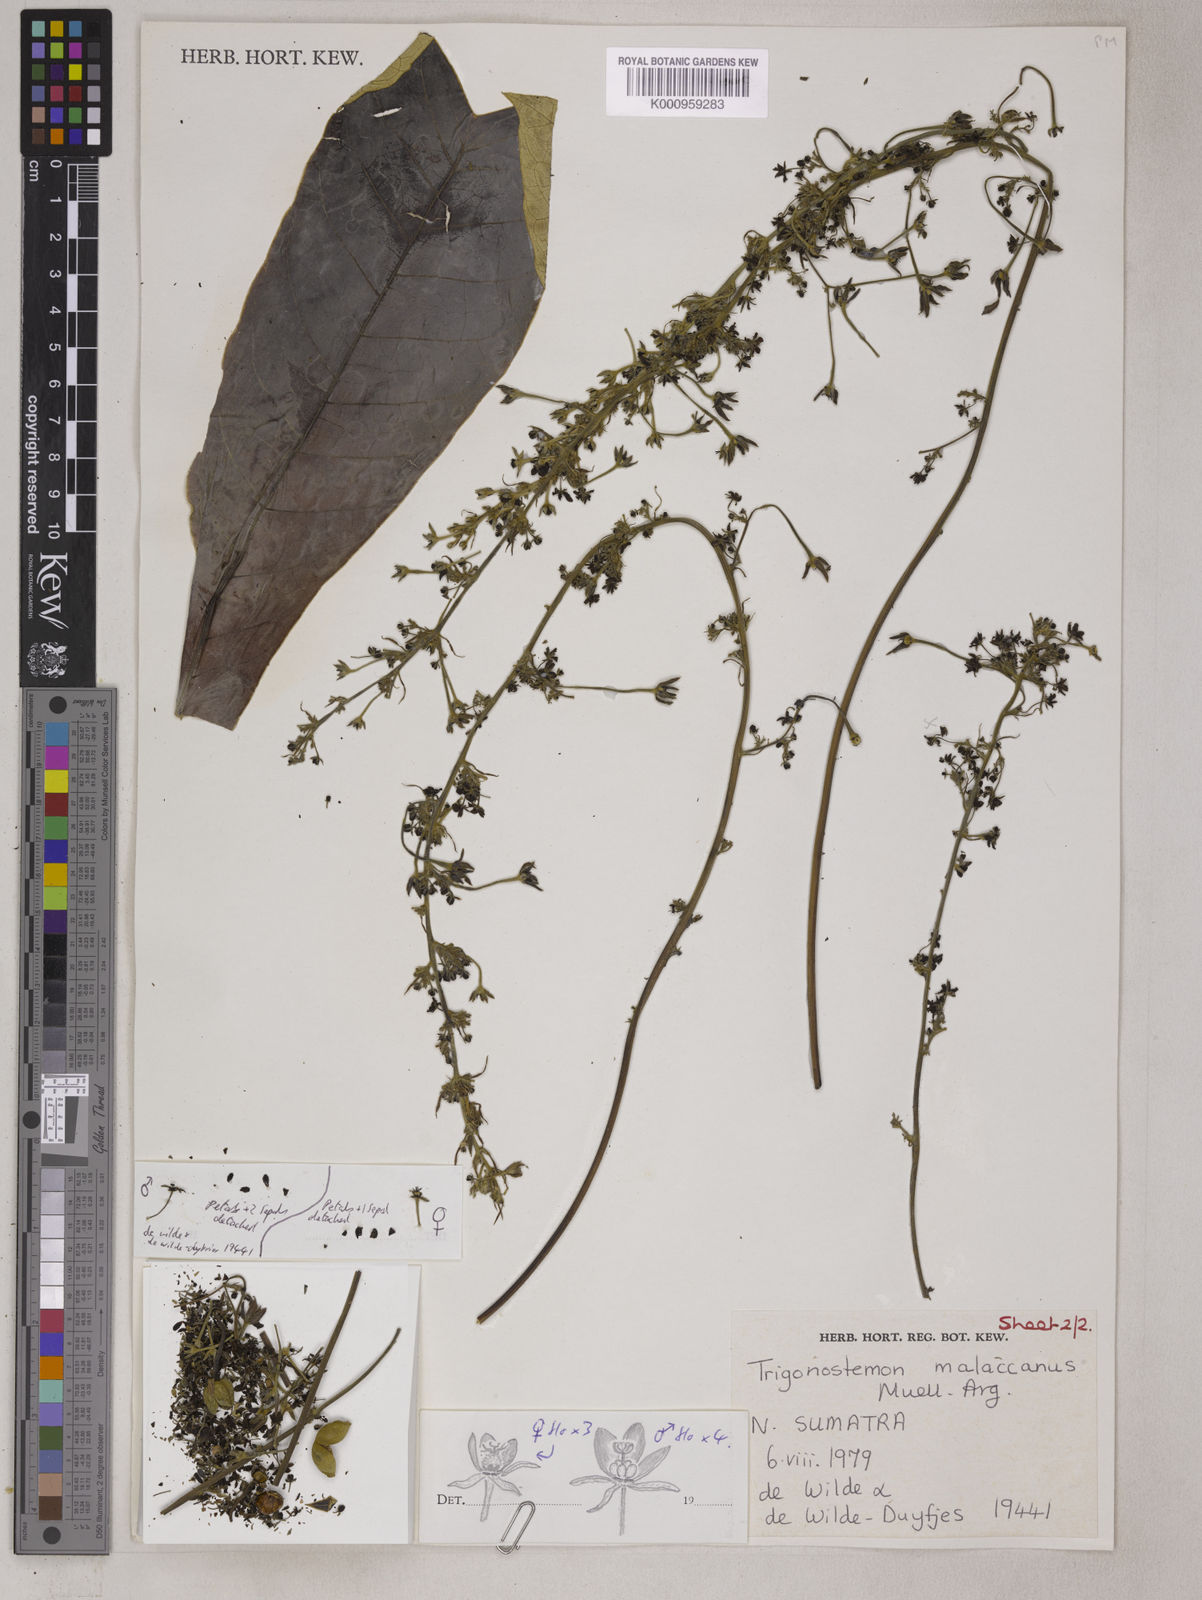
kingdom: Plantae
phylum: Tracheophyta
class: Magnoliopsida
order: Malpighiales
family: Euphorbiaceae
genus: Trigonostemon
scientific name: Trigonostemon magnificus
